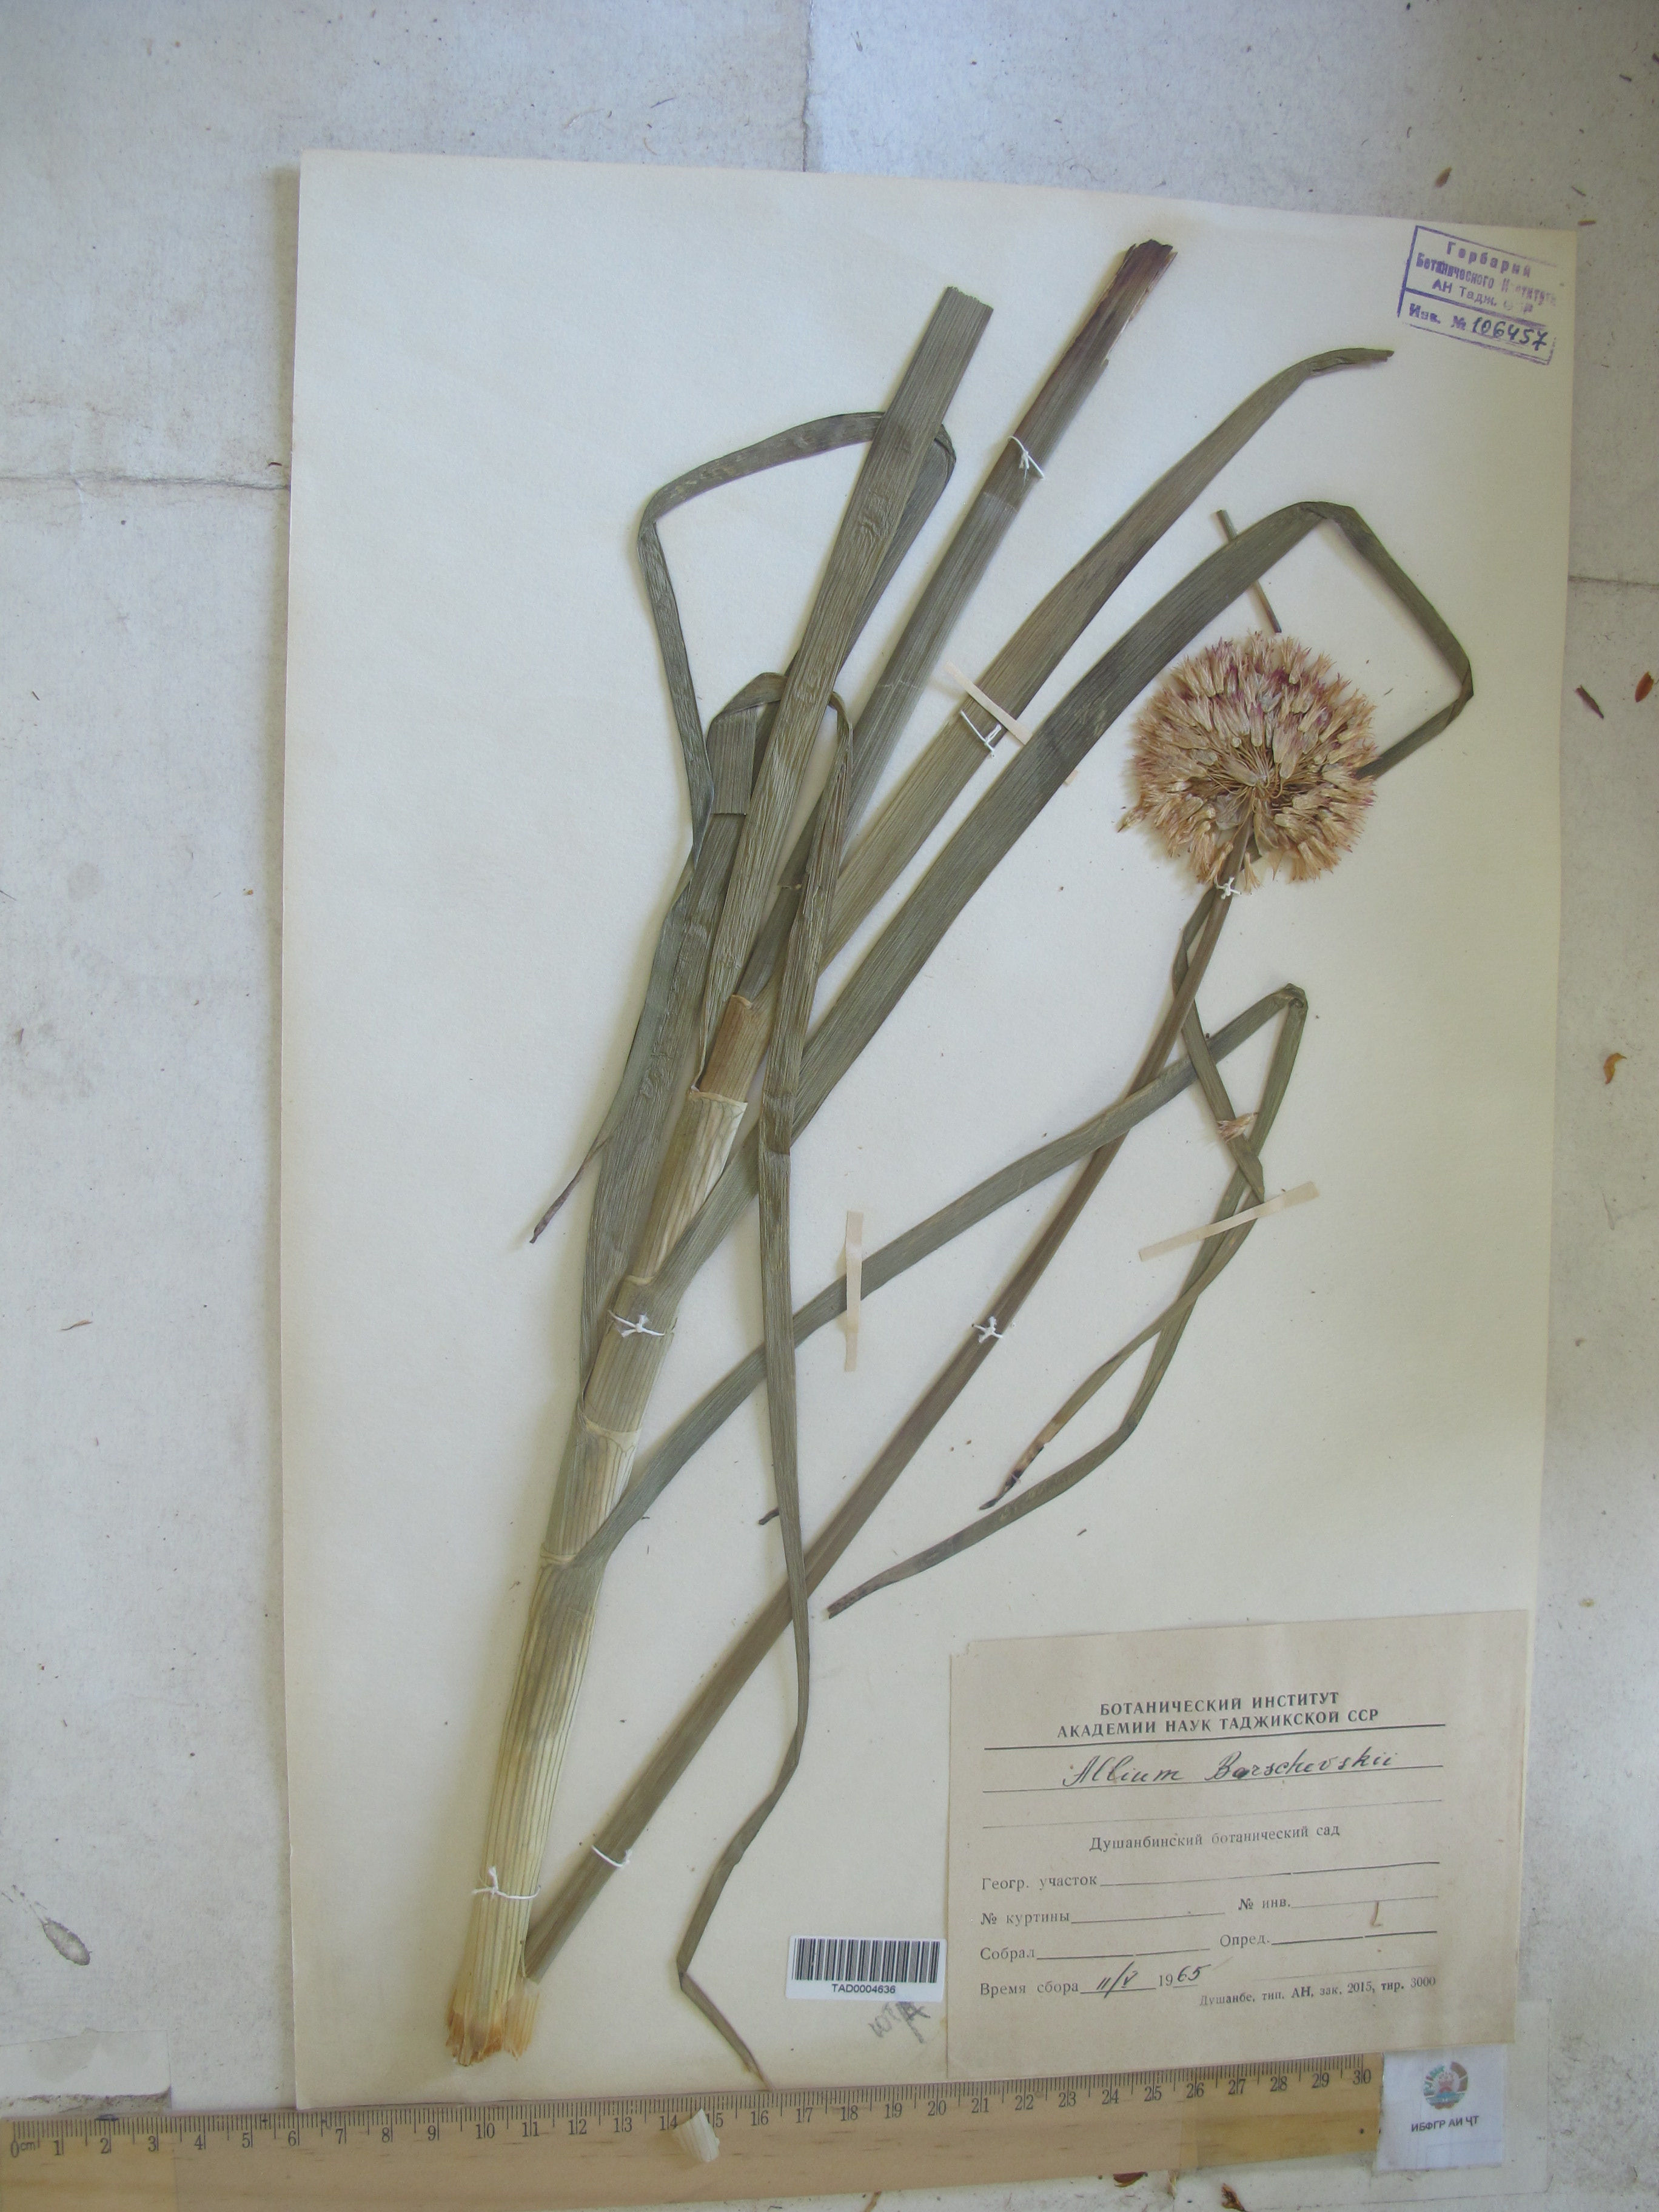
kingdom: Plantae
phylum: Tracheophyta
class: Liliopsida
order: Asparagales
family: Amaryllidaceae
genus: Allium
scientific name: Allium barsczewskii
